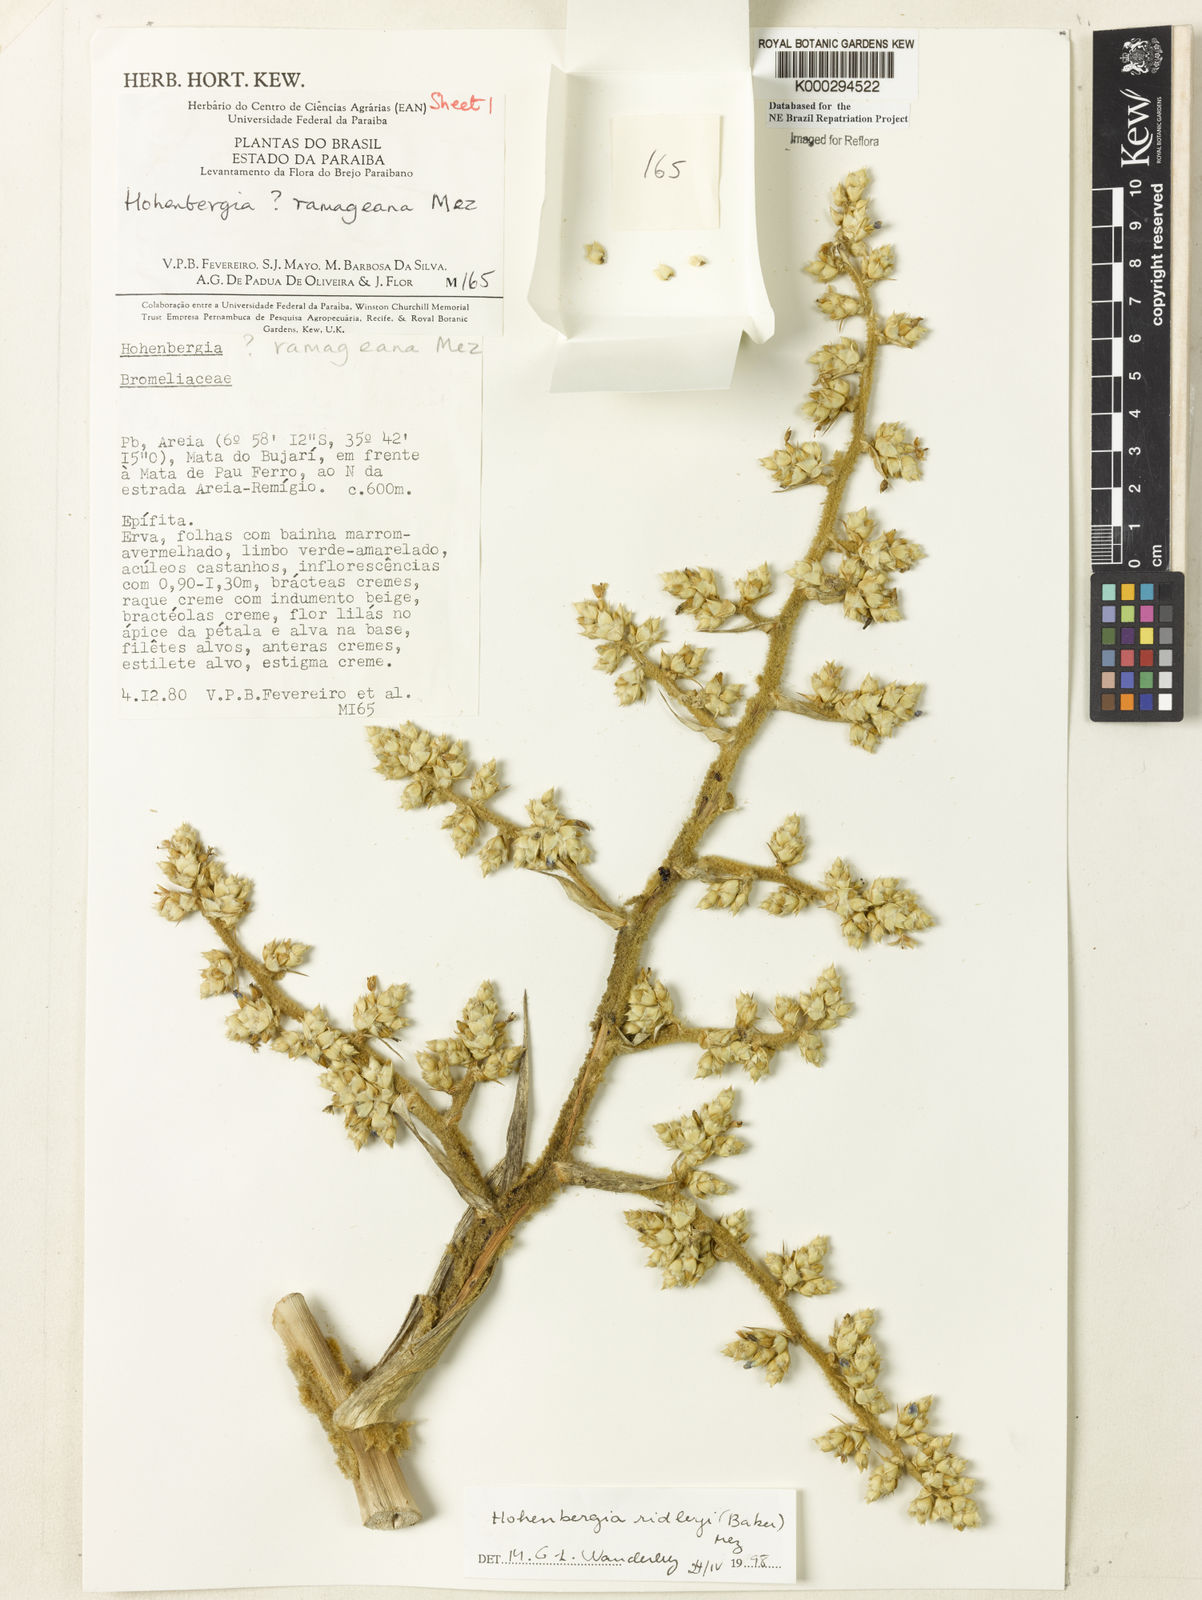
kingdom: Plantae
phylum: Tracheophyta
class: Liliopsida
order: Poales
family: Bromeliaceae
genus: Hohenbergia
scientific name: Hohenbergia ridleyi
